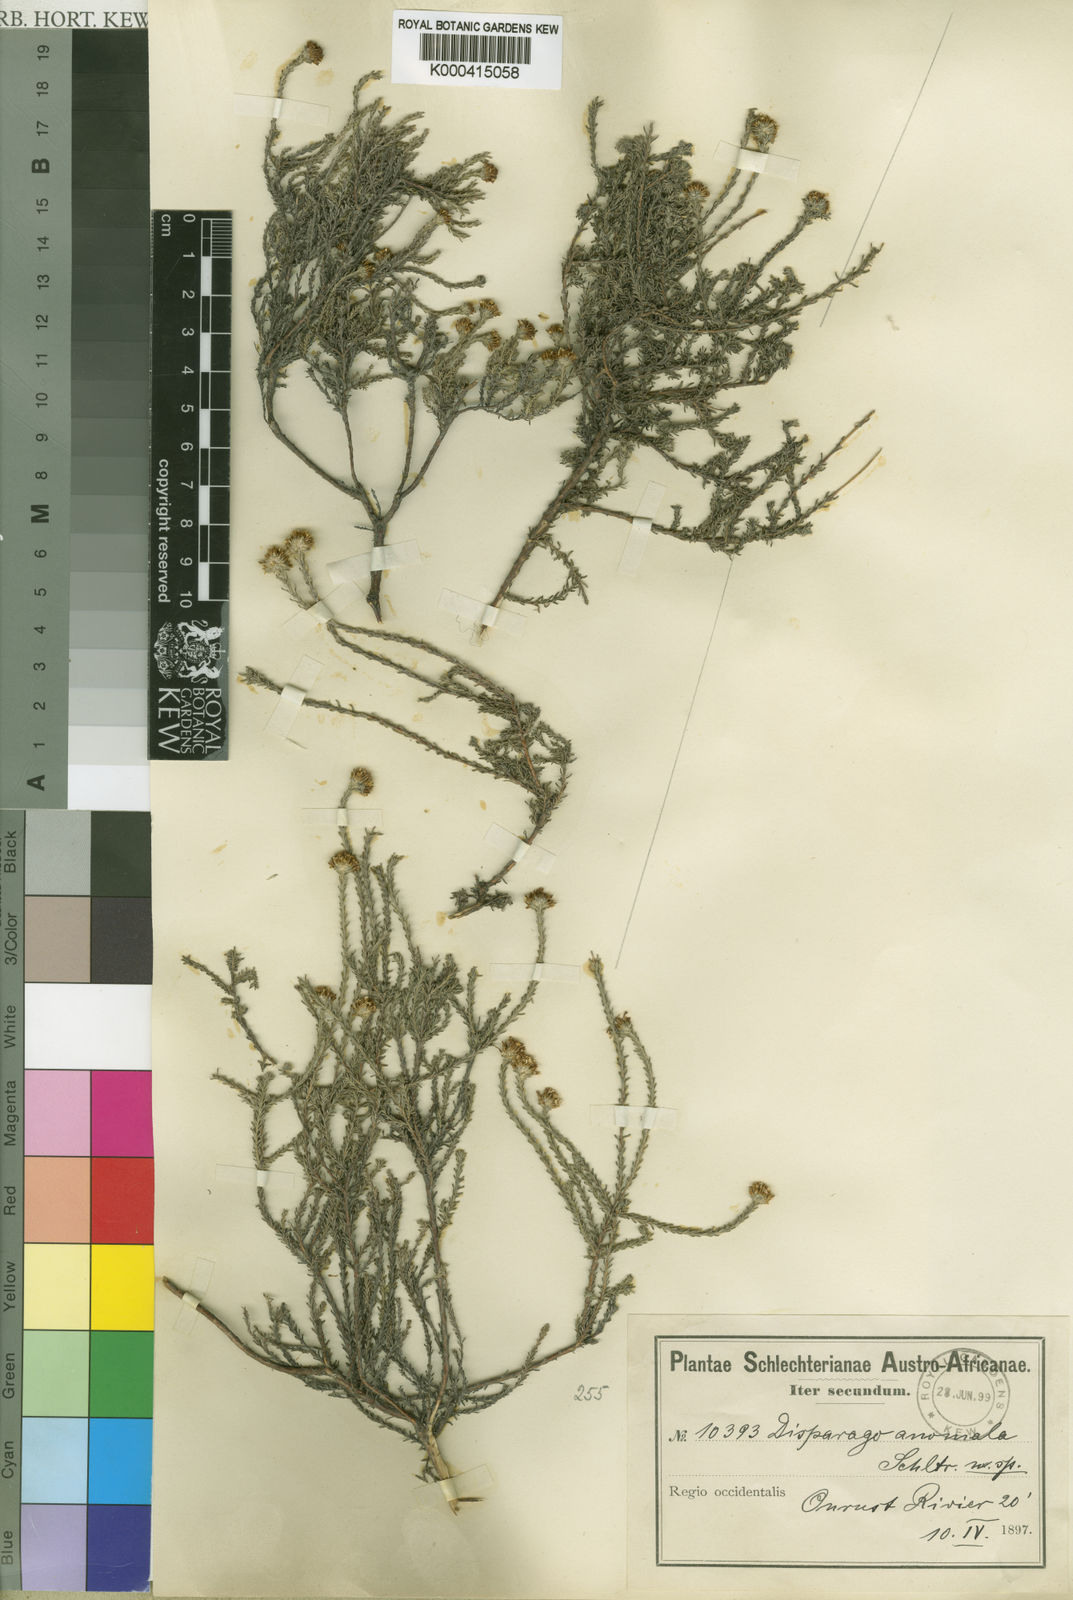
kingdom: Plantae
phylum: Tracheophyta
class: Magnoliopsida
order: Asterales
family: Asteraceae
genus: Disparago
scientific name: Disparago
